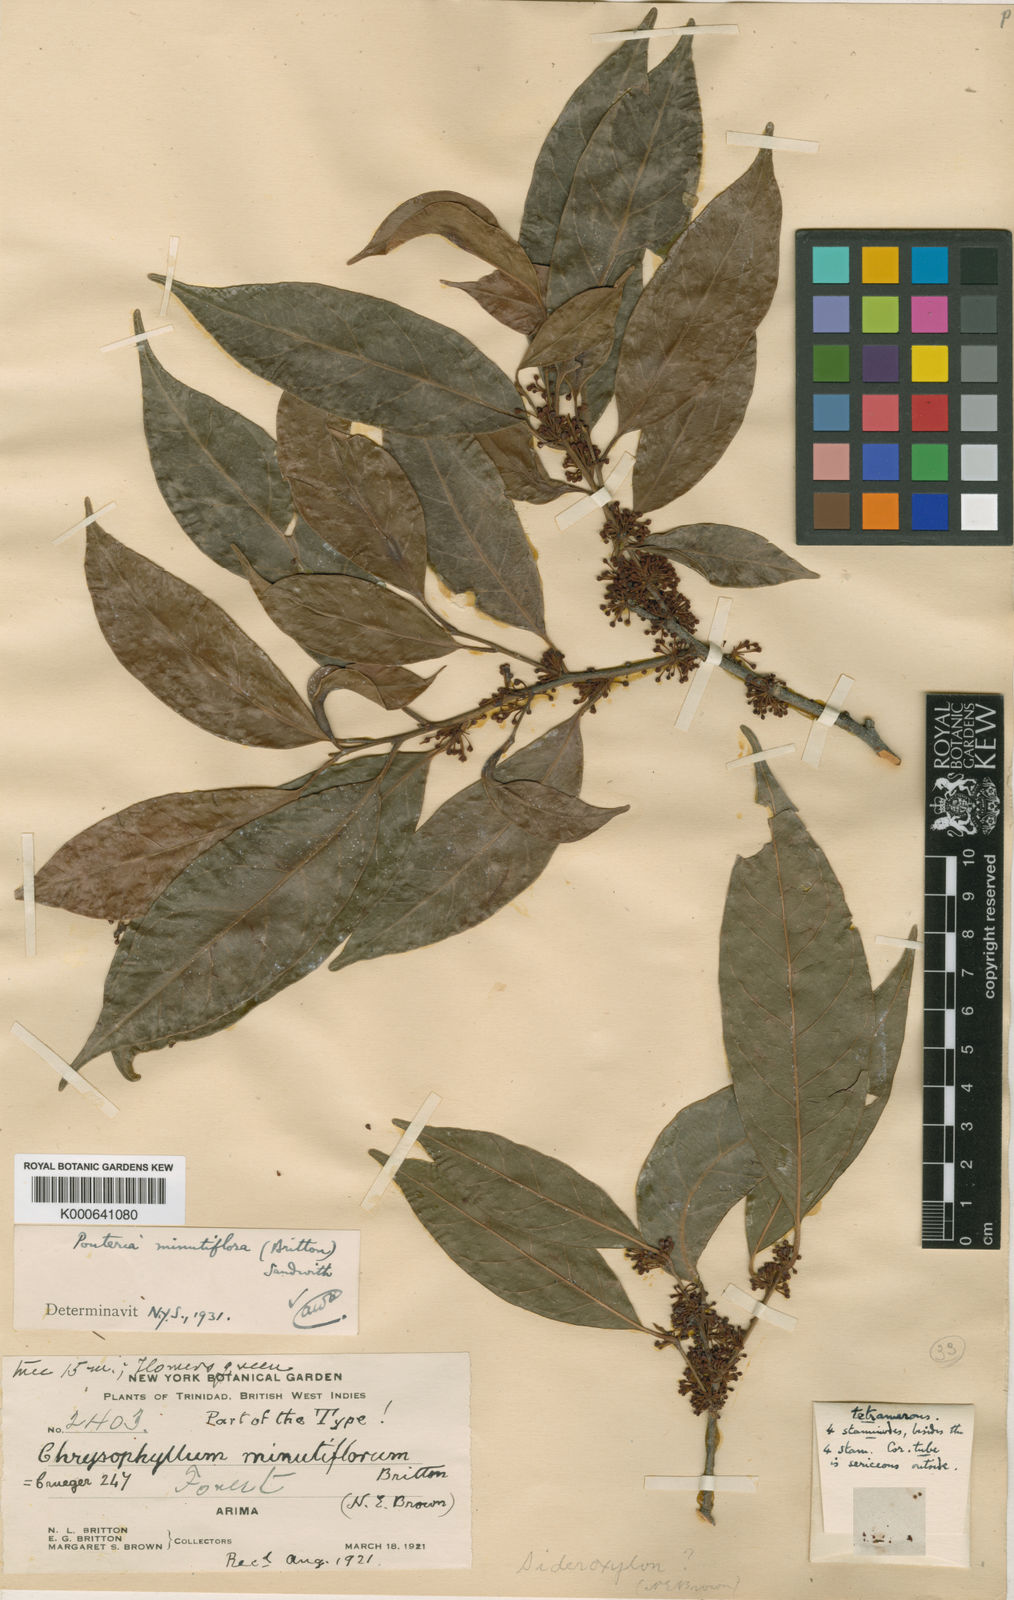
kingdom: Plantae
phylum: Tracheophyta
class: Magnoliopsida
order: Ericales
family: Sapotaceae
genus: Pouteria
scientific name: Pouteria coriacea
